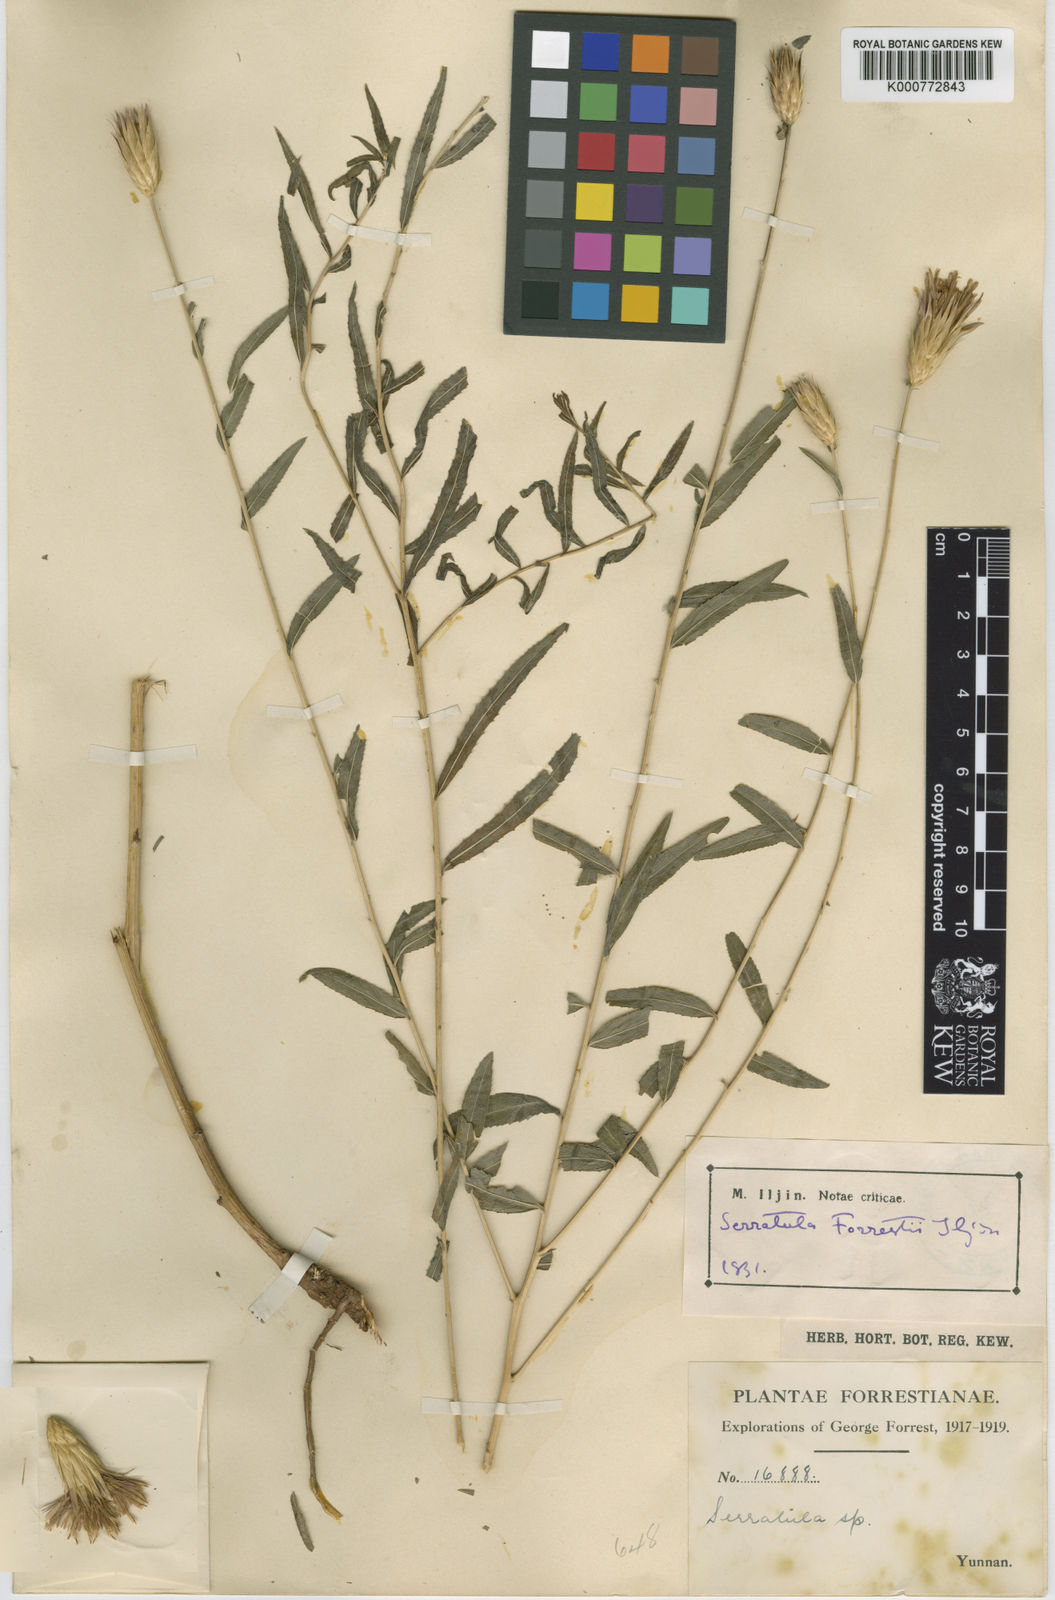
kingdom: Plantae
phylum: Tracheophyta
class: Magnoliopsida
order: Asterales
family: Asteraceae
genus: Archiserratula
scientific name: Archiserratula forrestii
